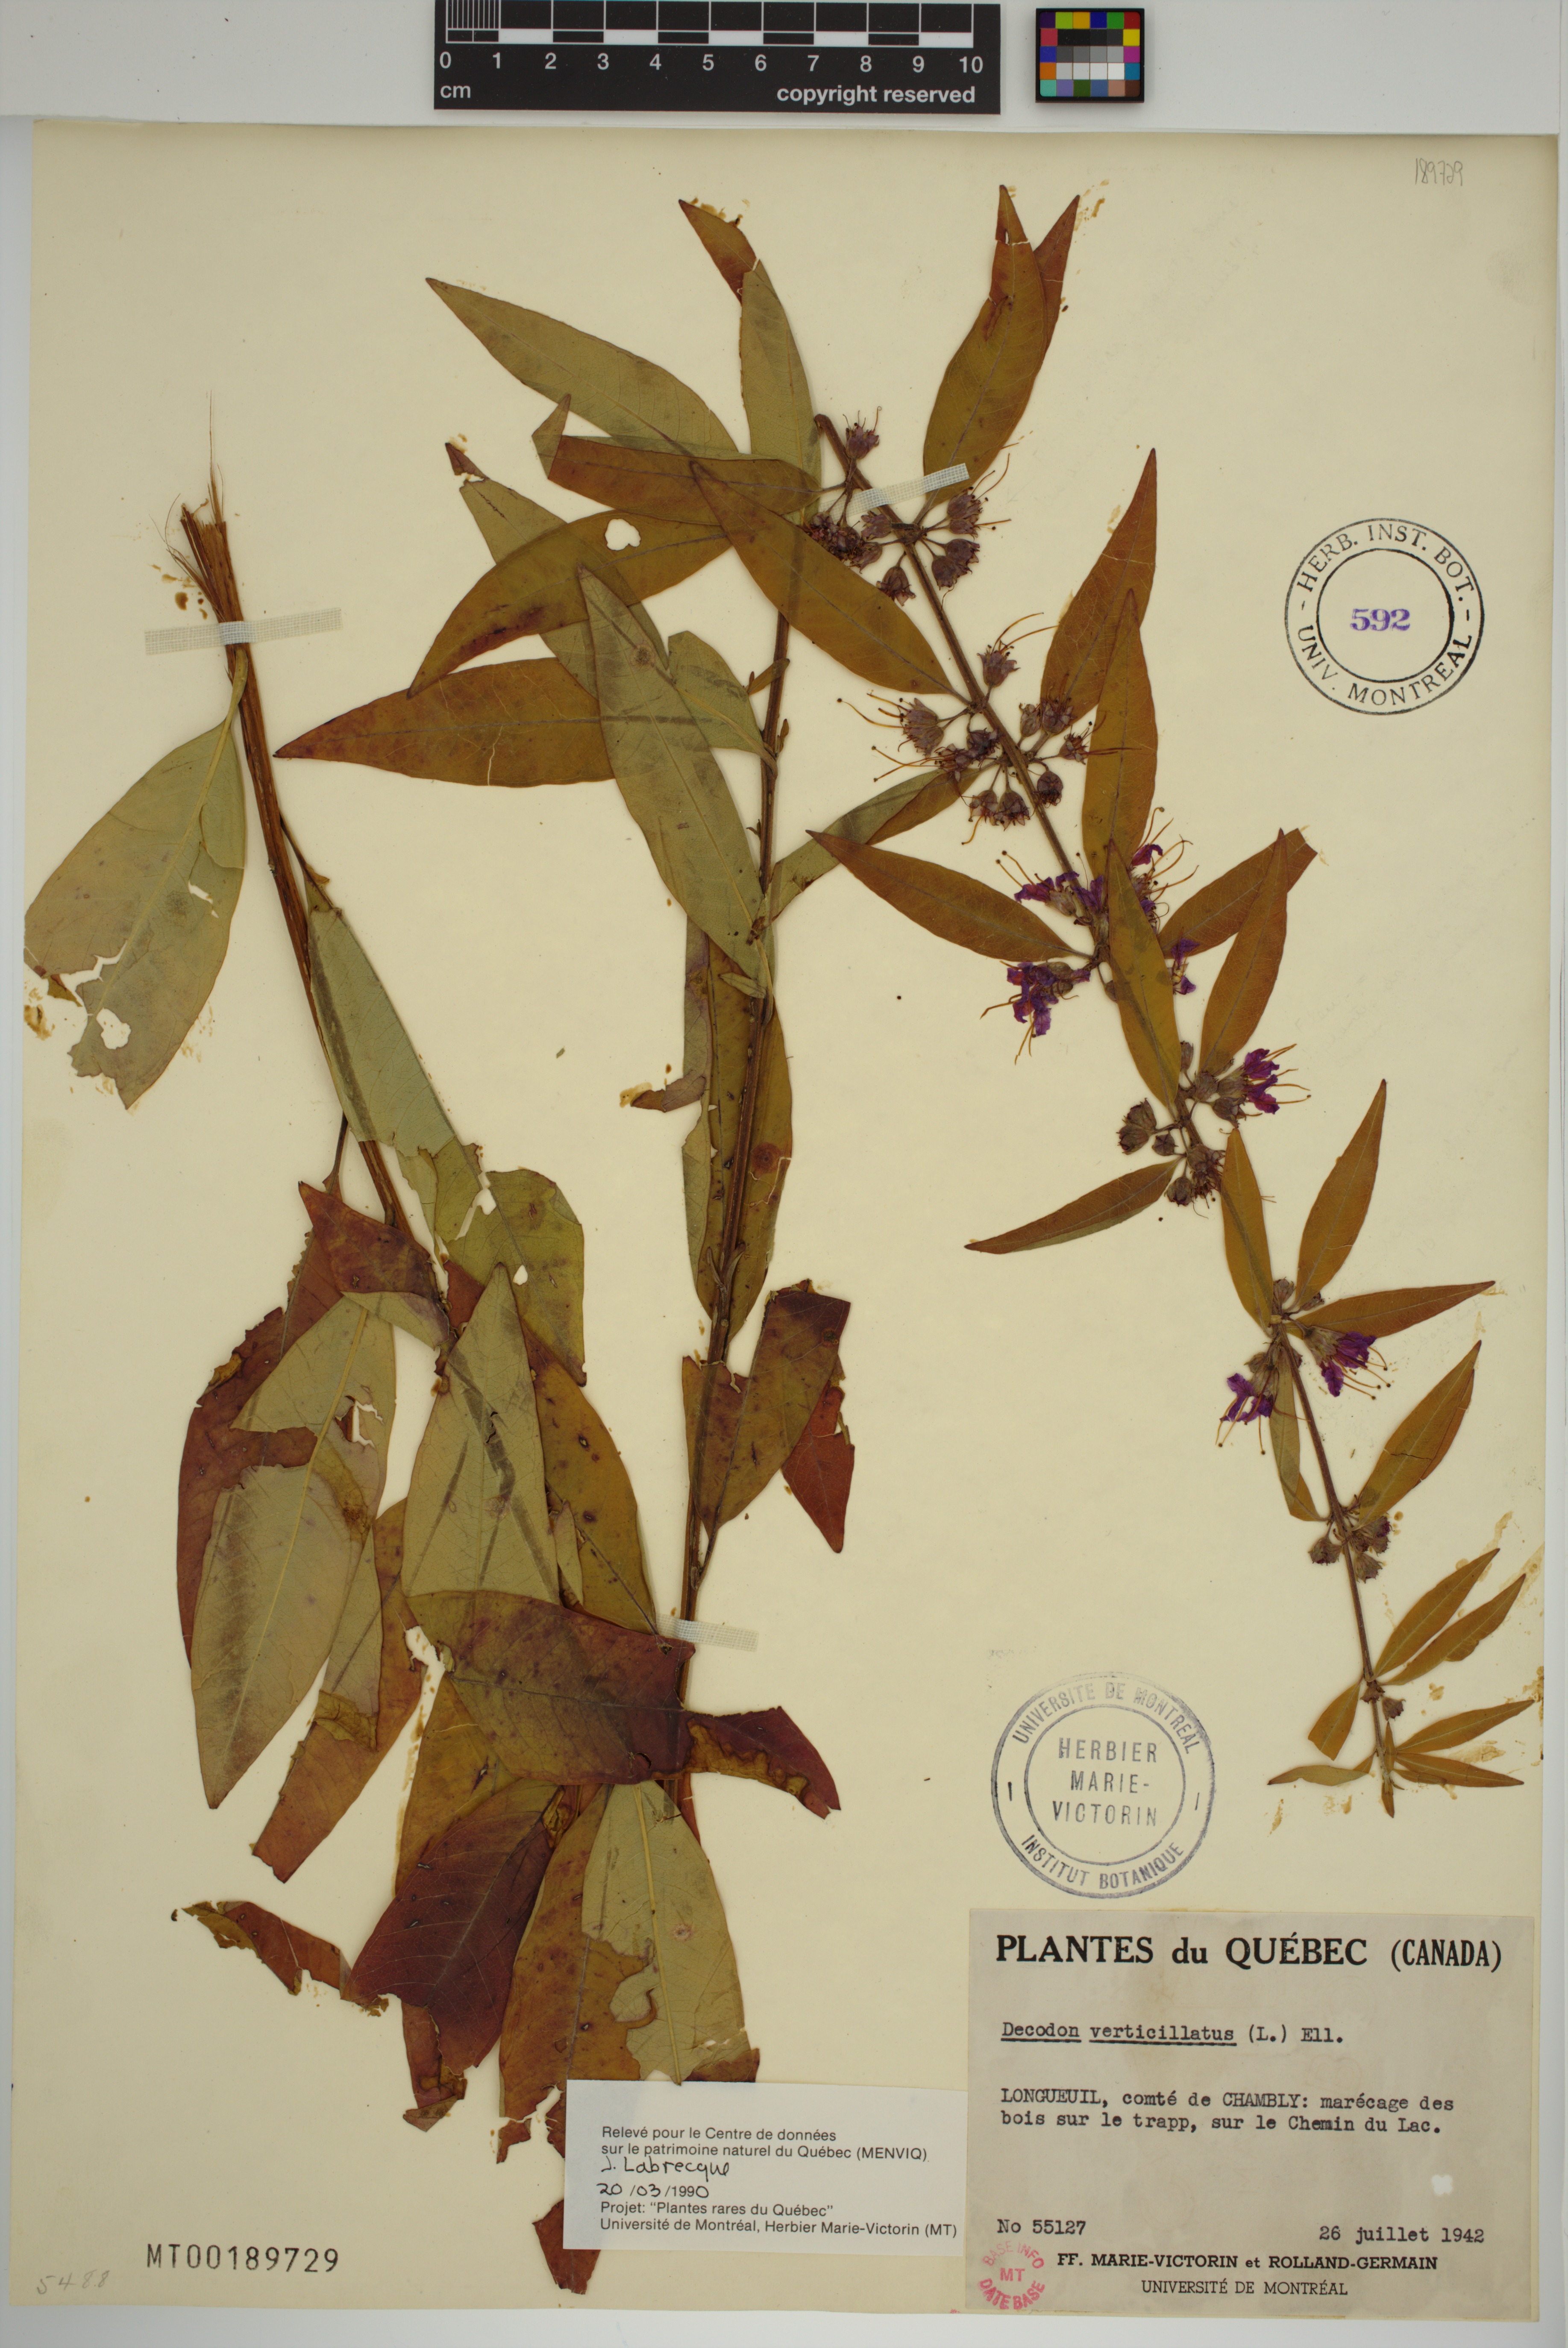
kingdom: Plantae
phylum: Tracheophyta
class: Magnoliopsida
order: Myrtales
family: Lythraceae
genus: Decodon
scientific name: Decodon verticillatus
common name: Hairy swamp loosestrife
